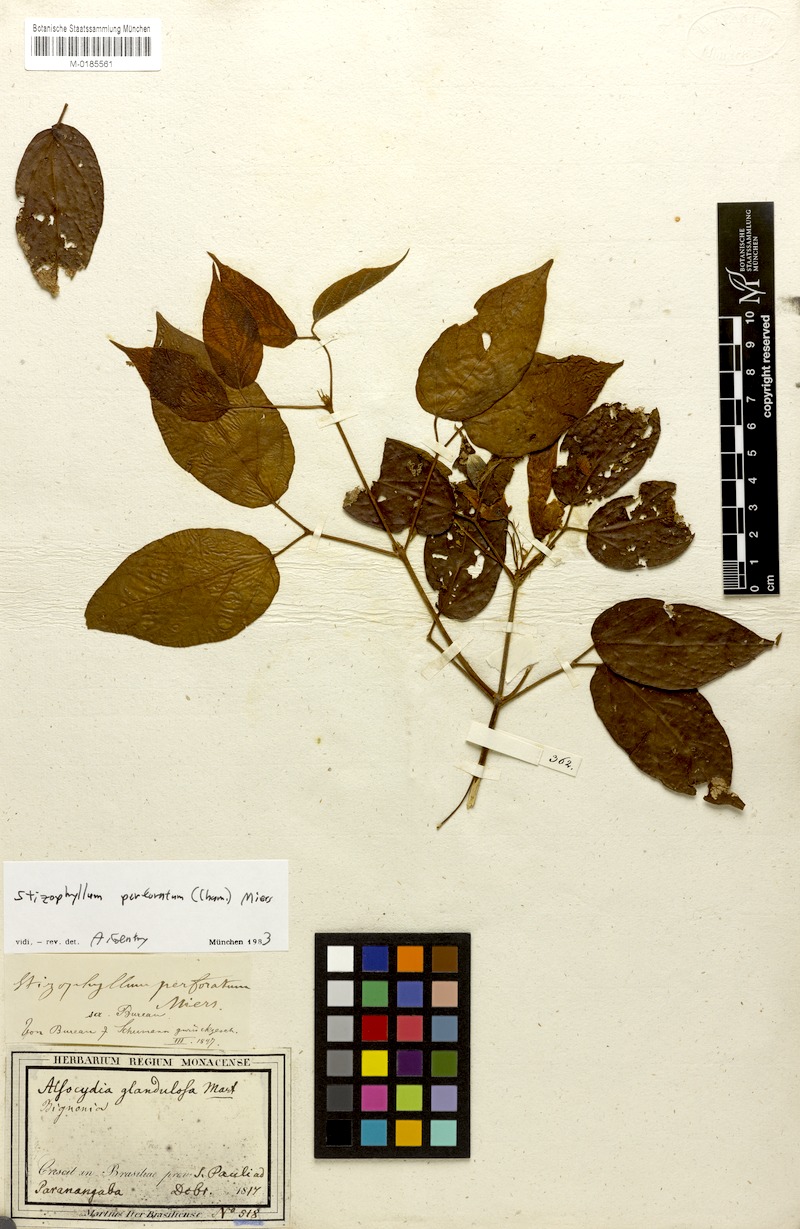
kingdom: Plantae
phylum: Tracheophyta
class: Magnoliopsida
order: Lamiales
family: Bignoniaceae
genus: Stizophyllum
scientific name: Stizophyllum perforatum
